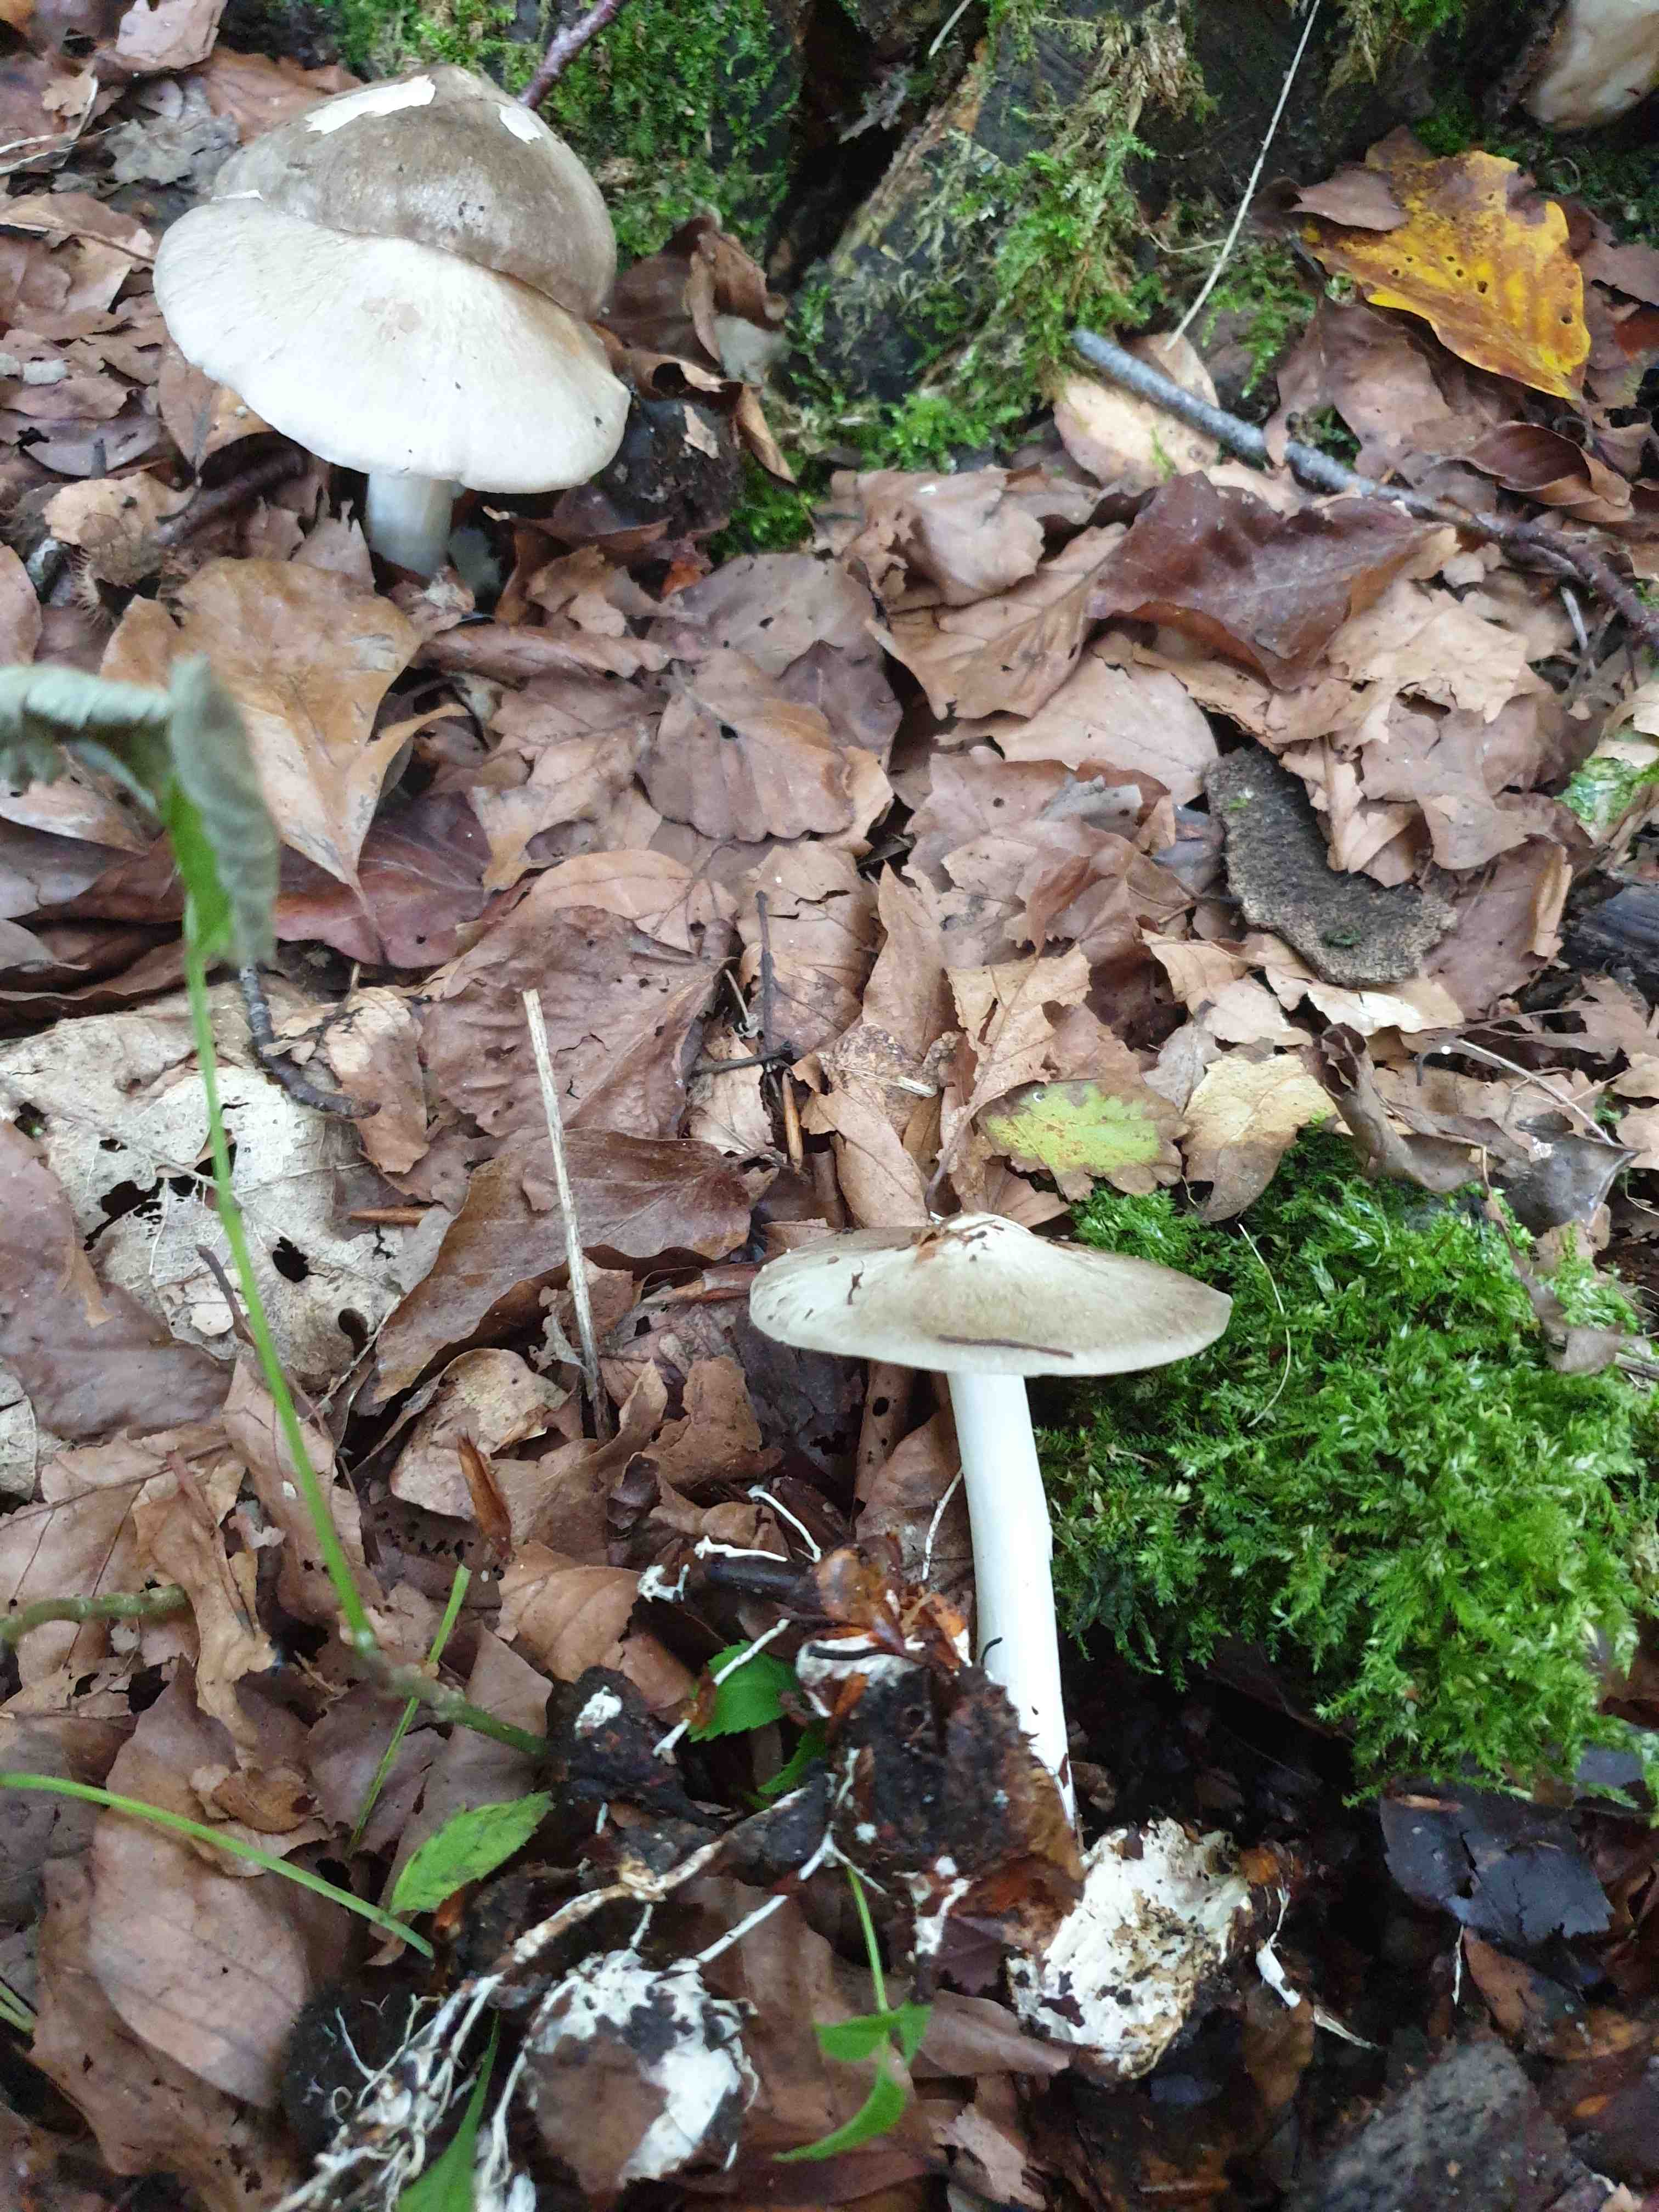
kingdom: Fungi
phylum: Basidiomycota
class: Agaricomycetes
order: Agaricales
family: Tricholomataceae
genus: Megacollybia
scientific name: Megacollybia platyphylla
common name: bredbladet væbnerhat
